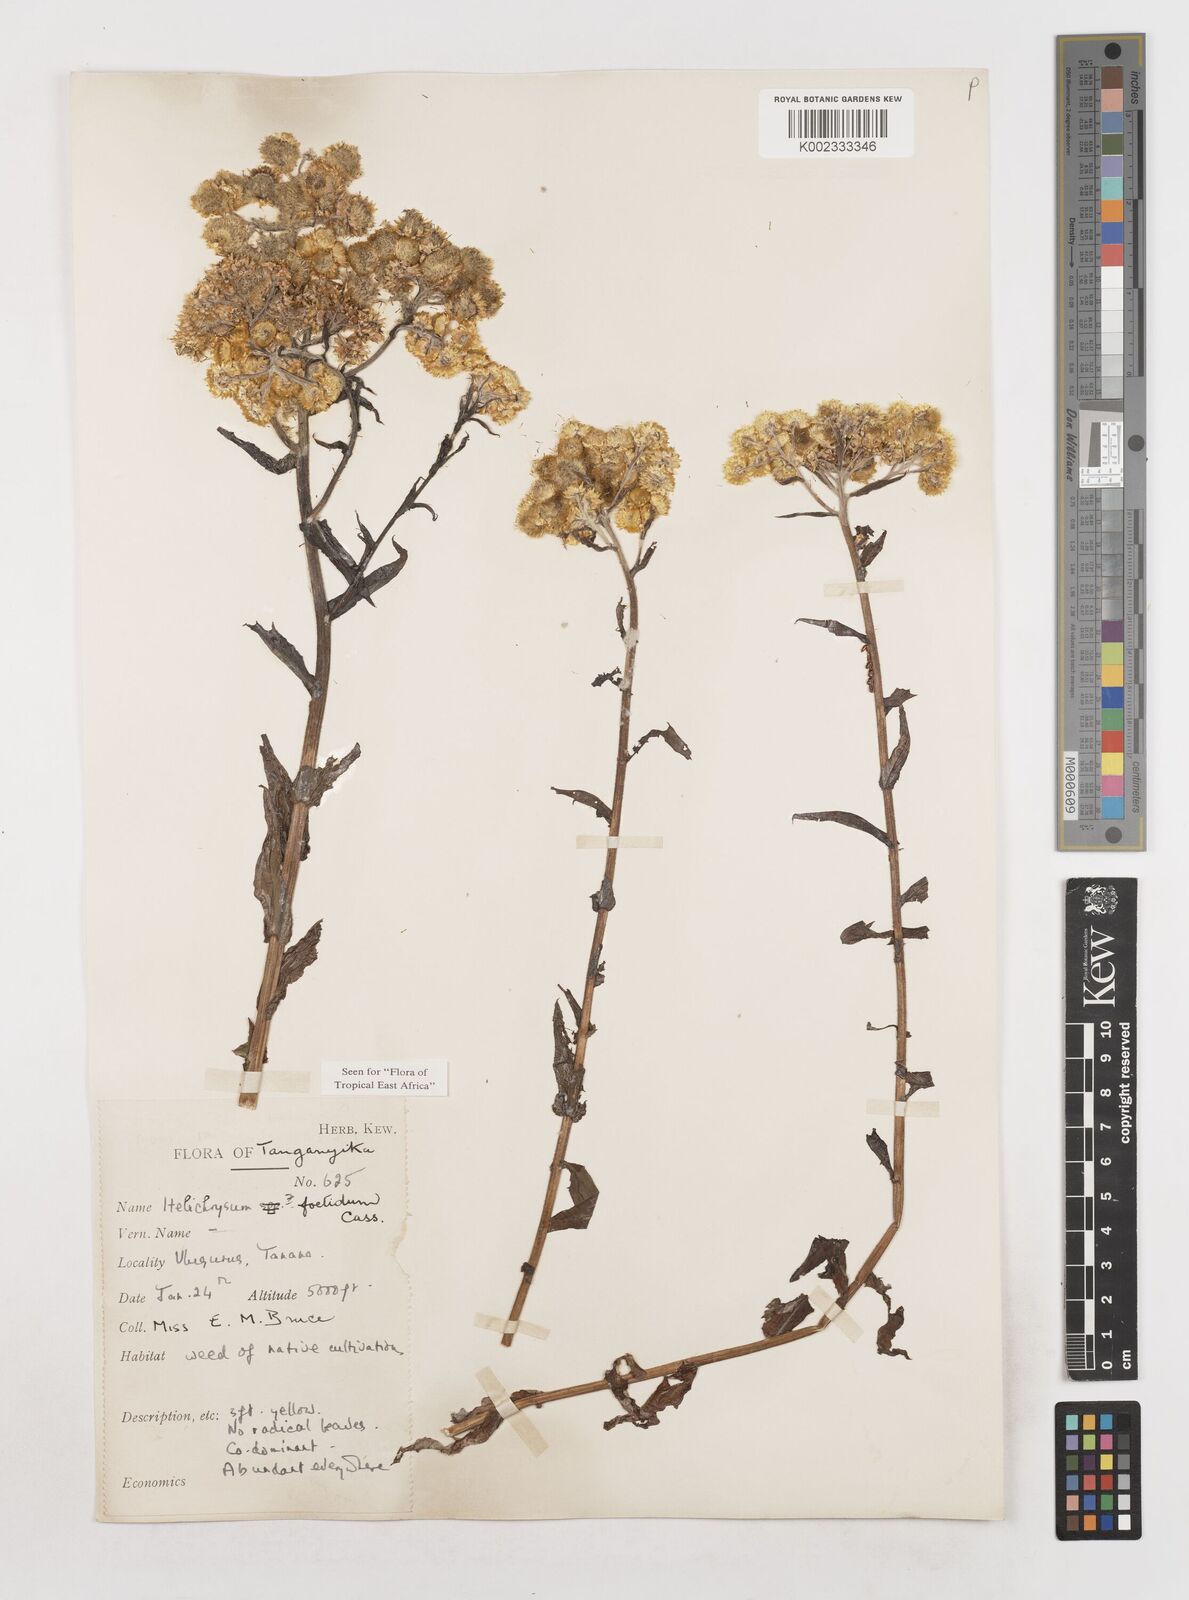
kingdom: Plantae
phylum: Tracheophyta
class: Magnoliopsida
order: Asterales
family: Asteraceae
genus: Helichrysum
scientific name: Helichrysum foetidum
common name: Stinking everlasting
